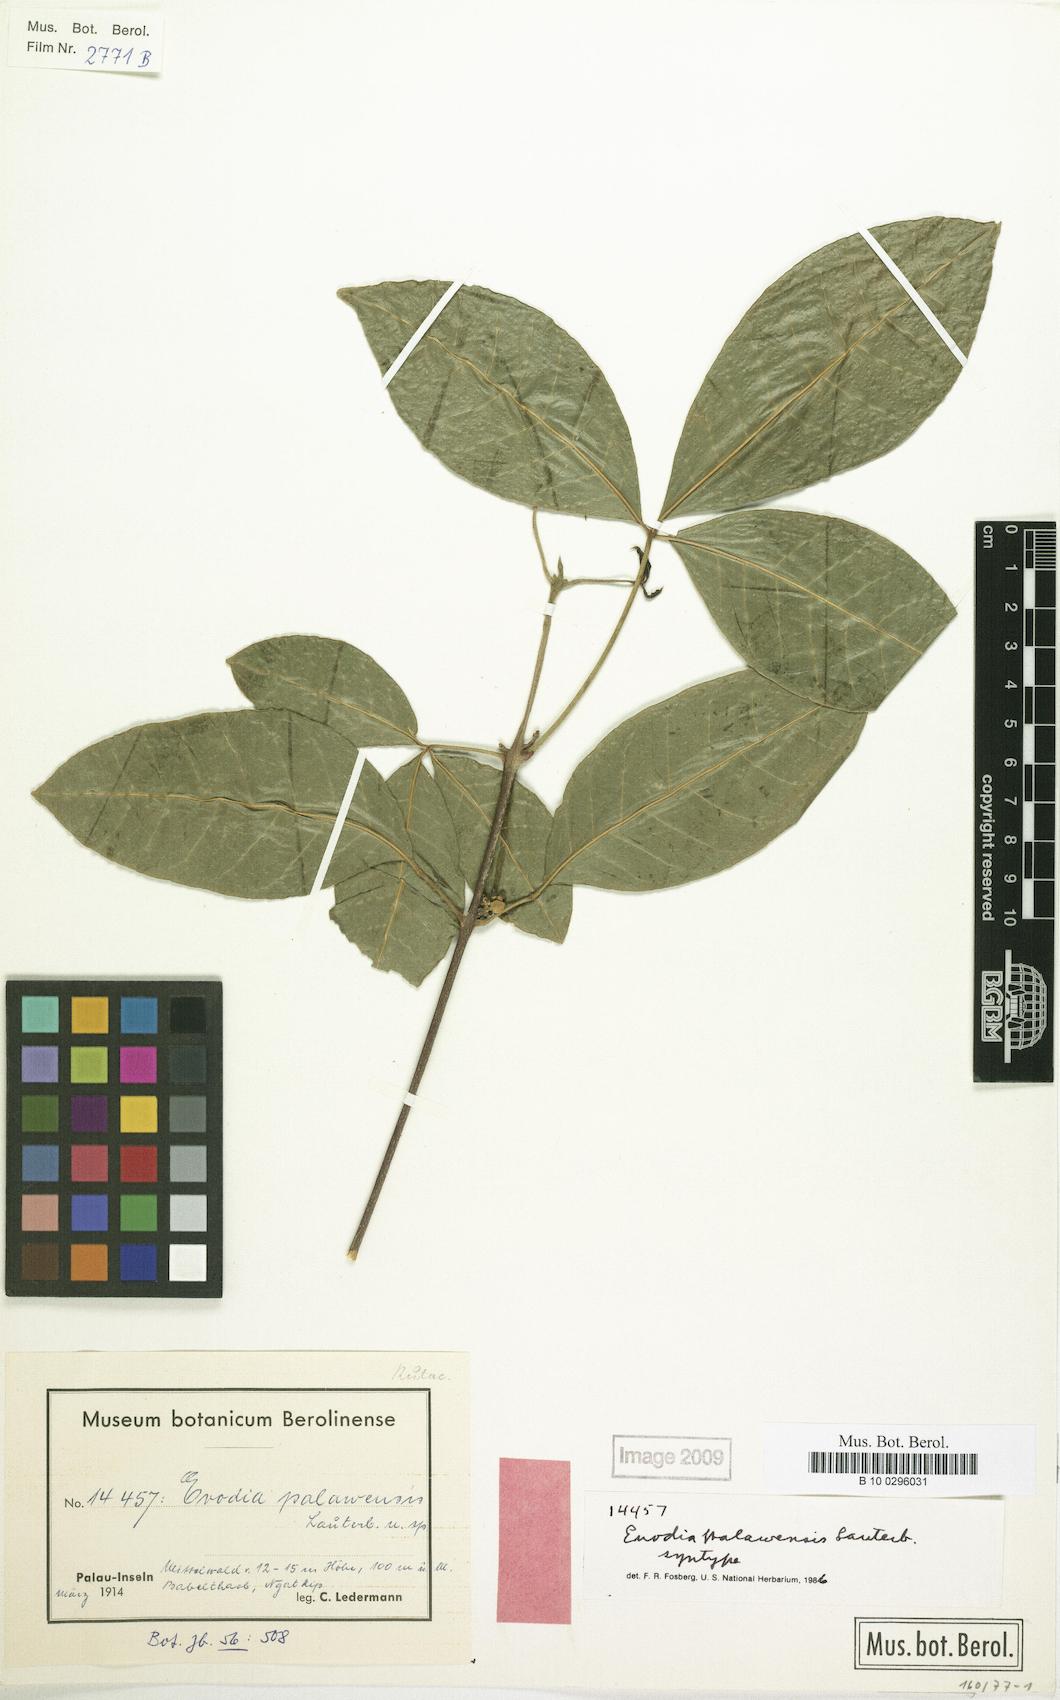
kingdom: Plantae
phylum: Tracheophyta
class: Magnoliopsida
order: Sapindales
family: Rutaceae
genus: Melicope
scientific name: Melicope palawensis
